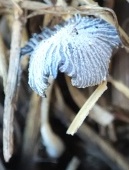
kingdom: Fungi
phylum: Basidiomycota
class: Agaricomycetes
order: Agaricales
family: Psathyrellaceae
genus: Narcissea
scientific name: Narcissea ephemeroides
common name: ring-blækhat
